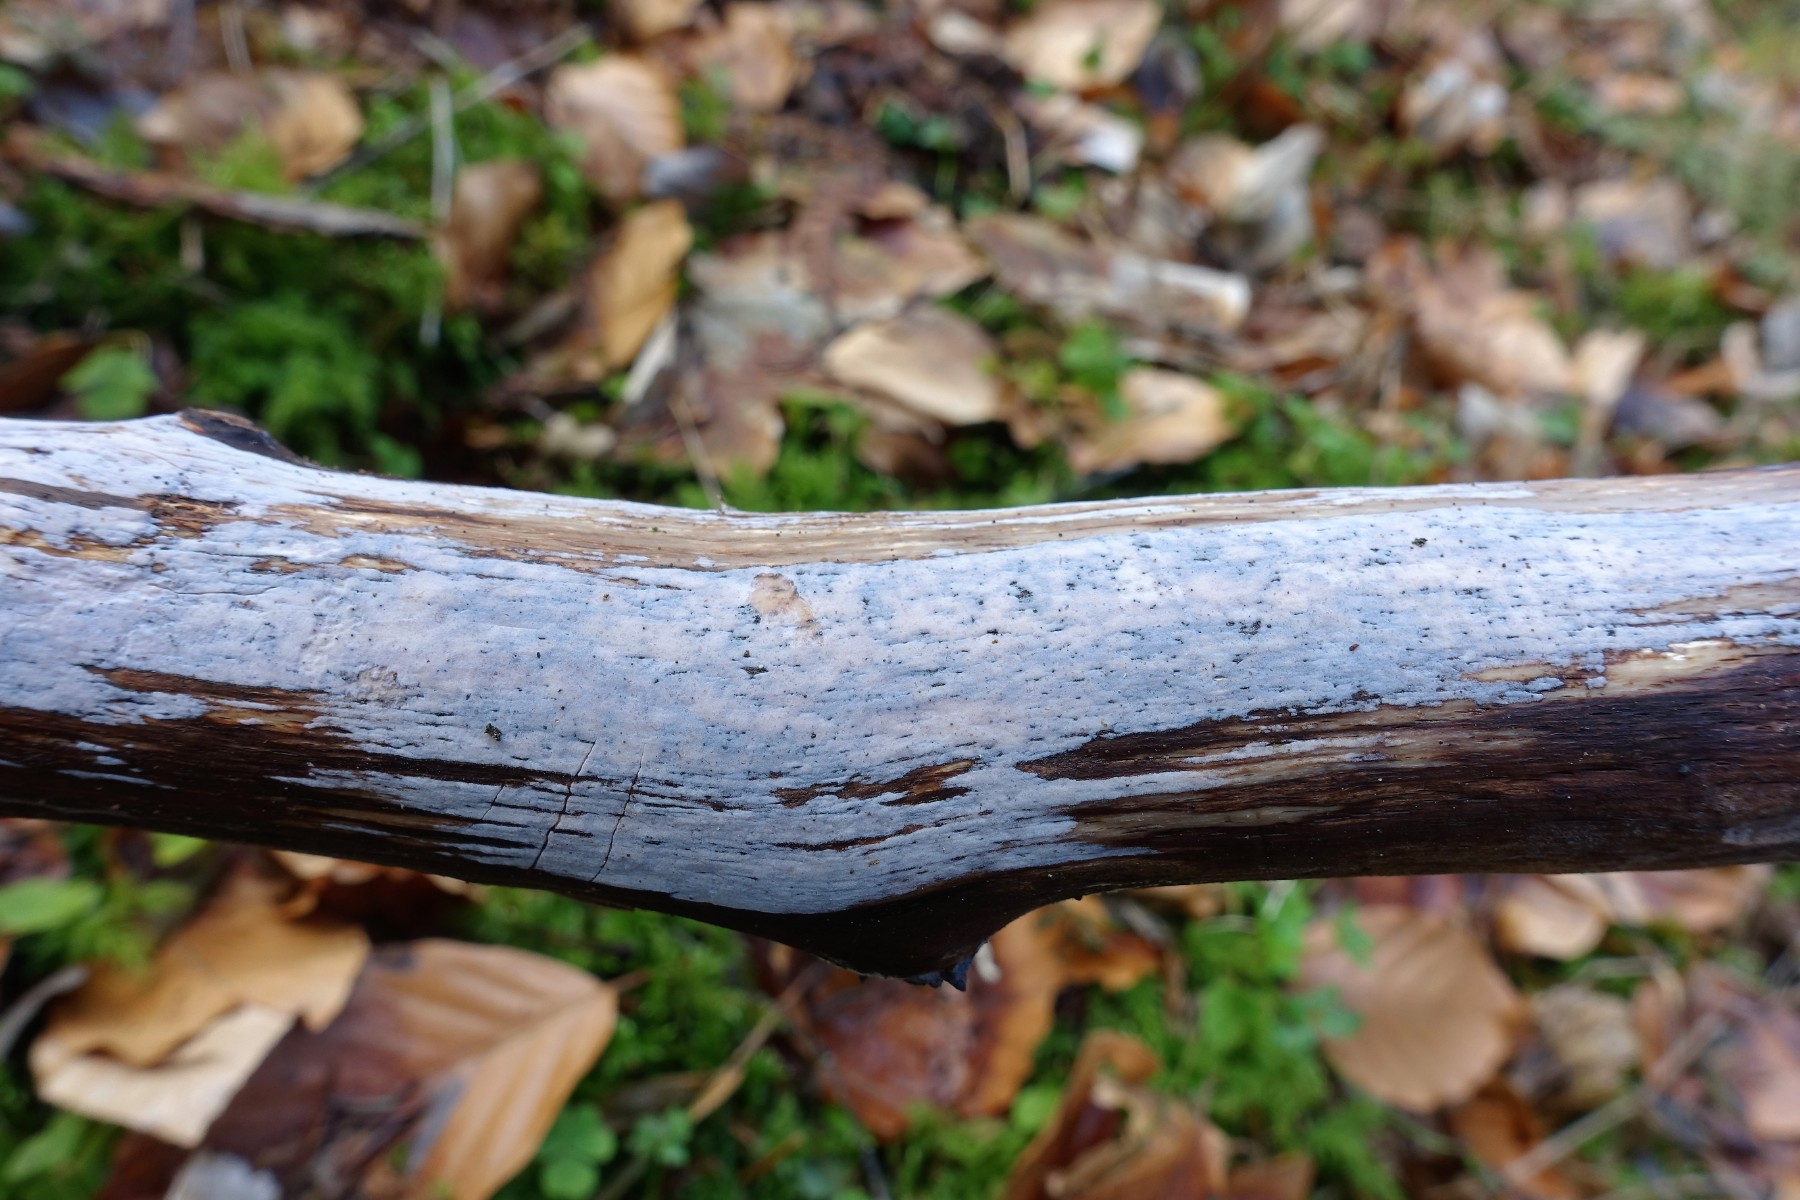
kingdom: Fungi
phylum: Basidiomycota
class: Tremellomycetes
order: Tremellales
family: Exidiaceae
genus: Exidiopsis
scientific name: Exidiopsis effusa
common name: smuk bævrehinde
